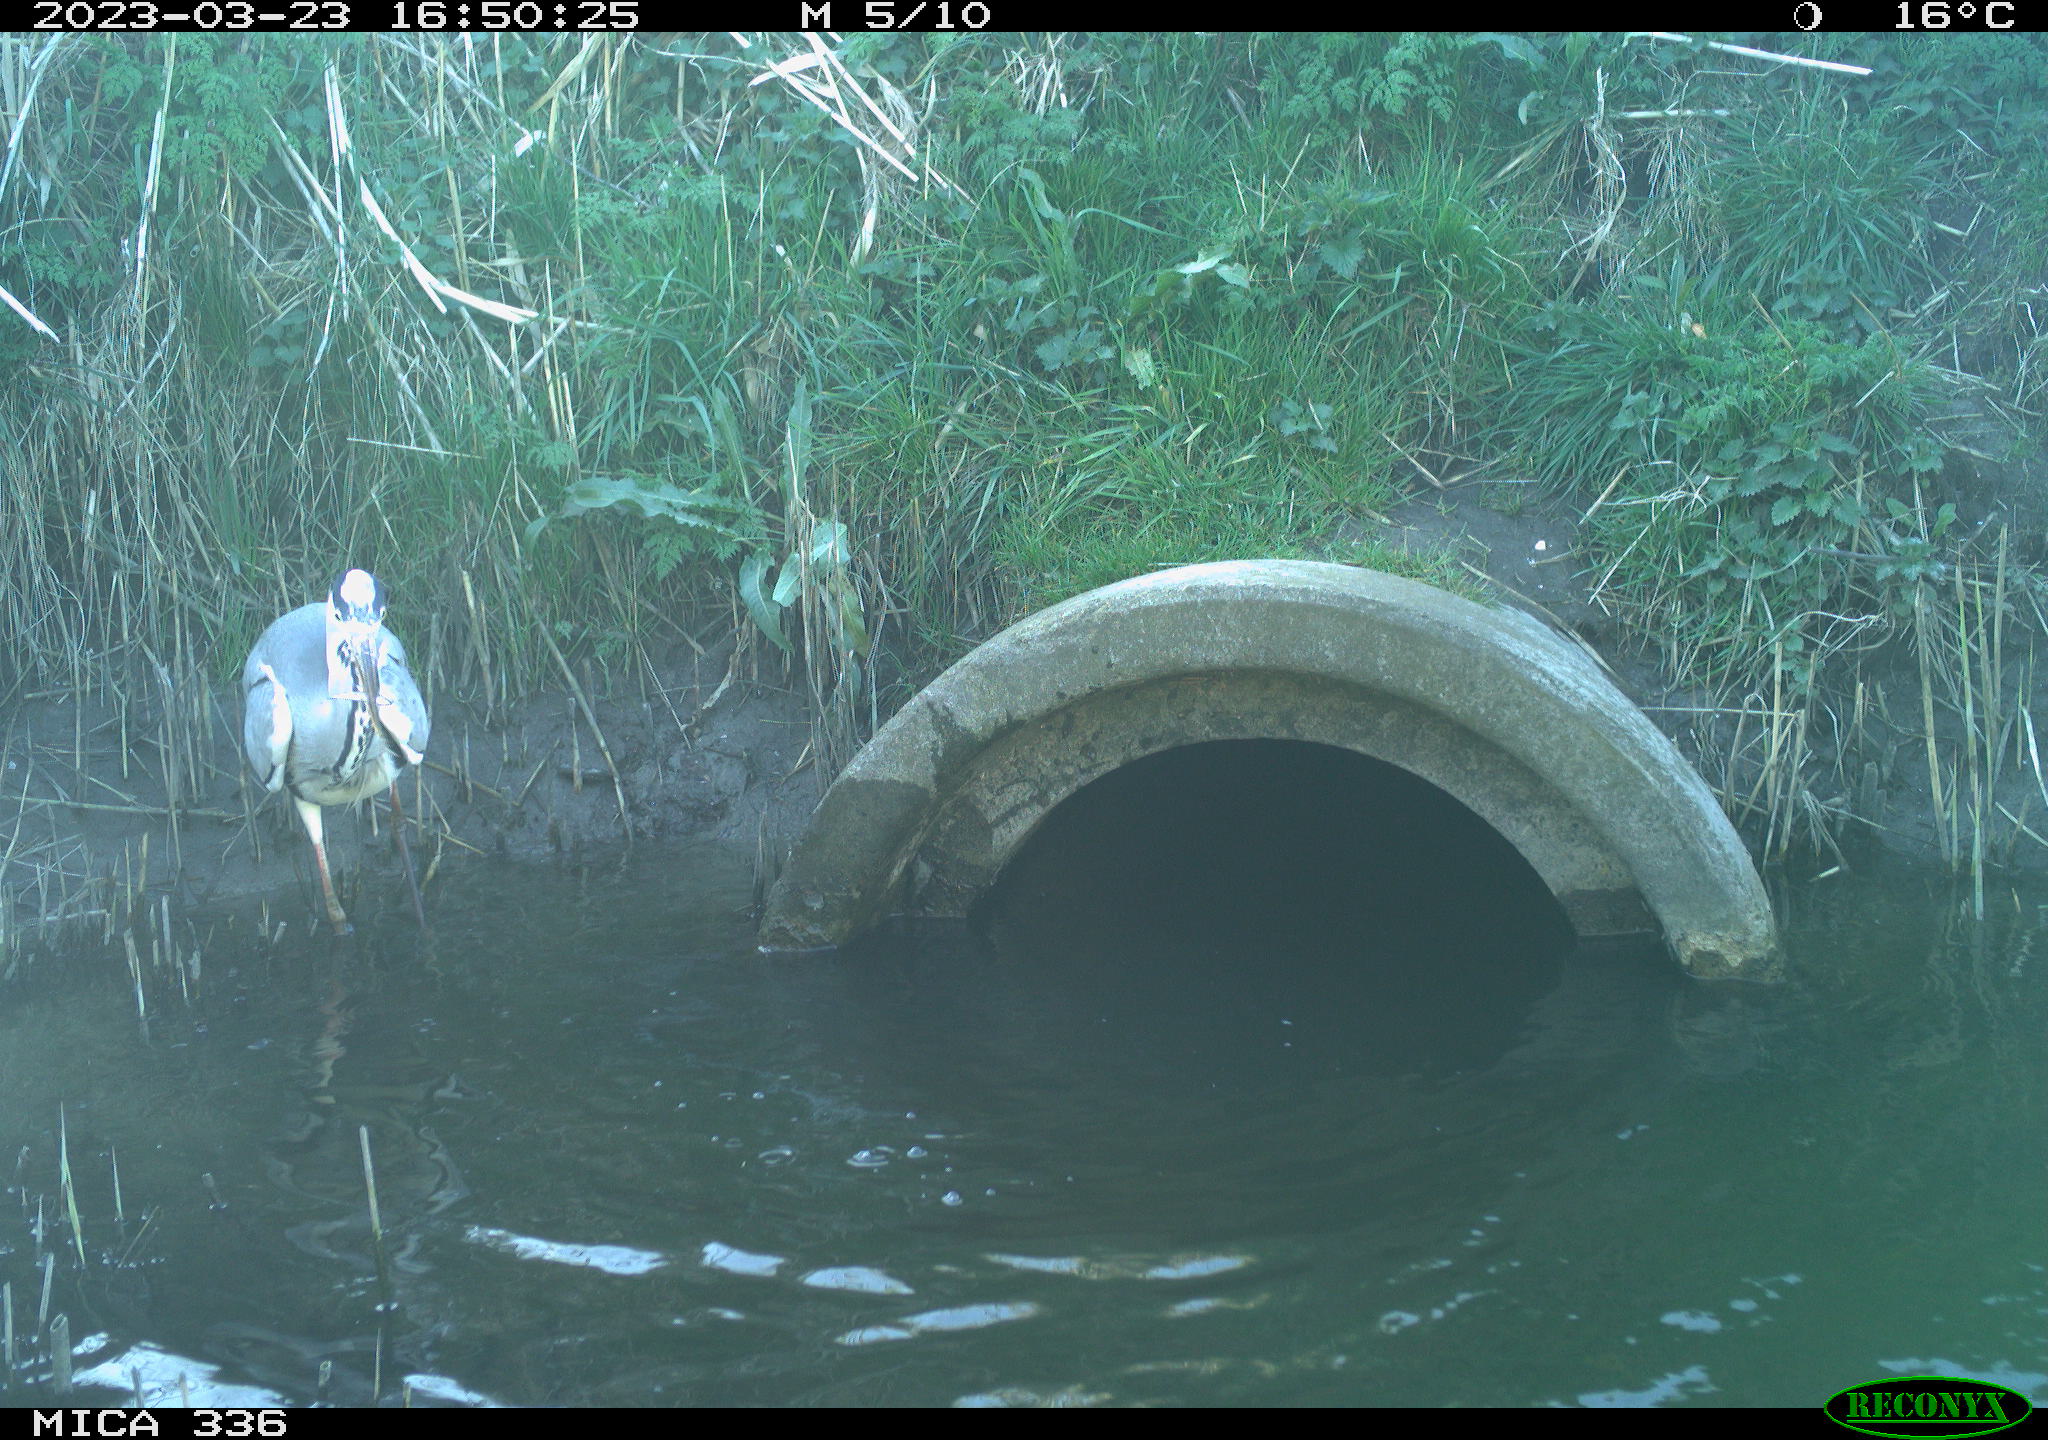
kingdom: Animalia
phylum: Chordata
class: Aves
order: Pelecaniformes
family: Ardeidae
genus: Ardea
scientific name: Ardea
